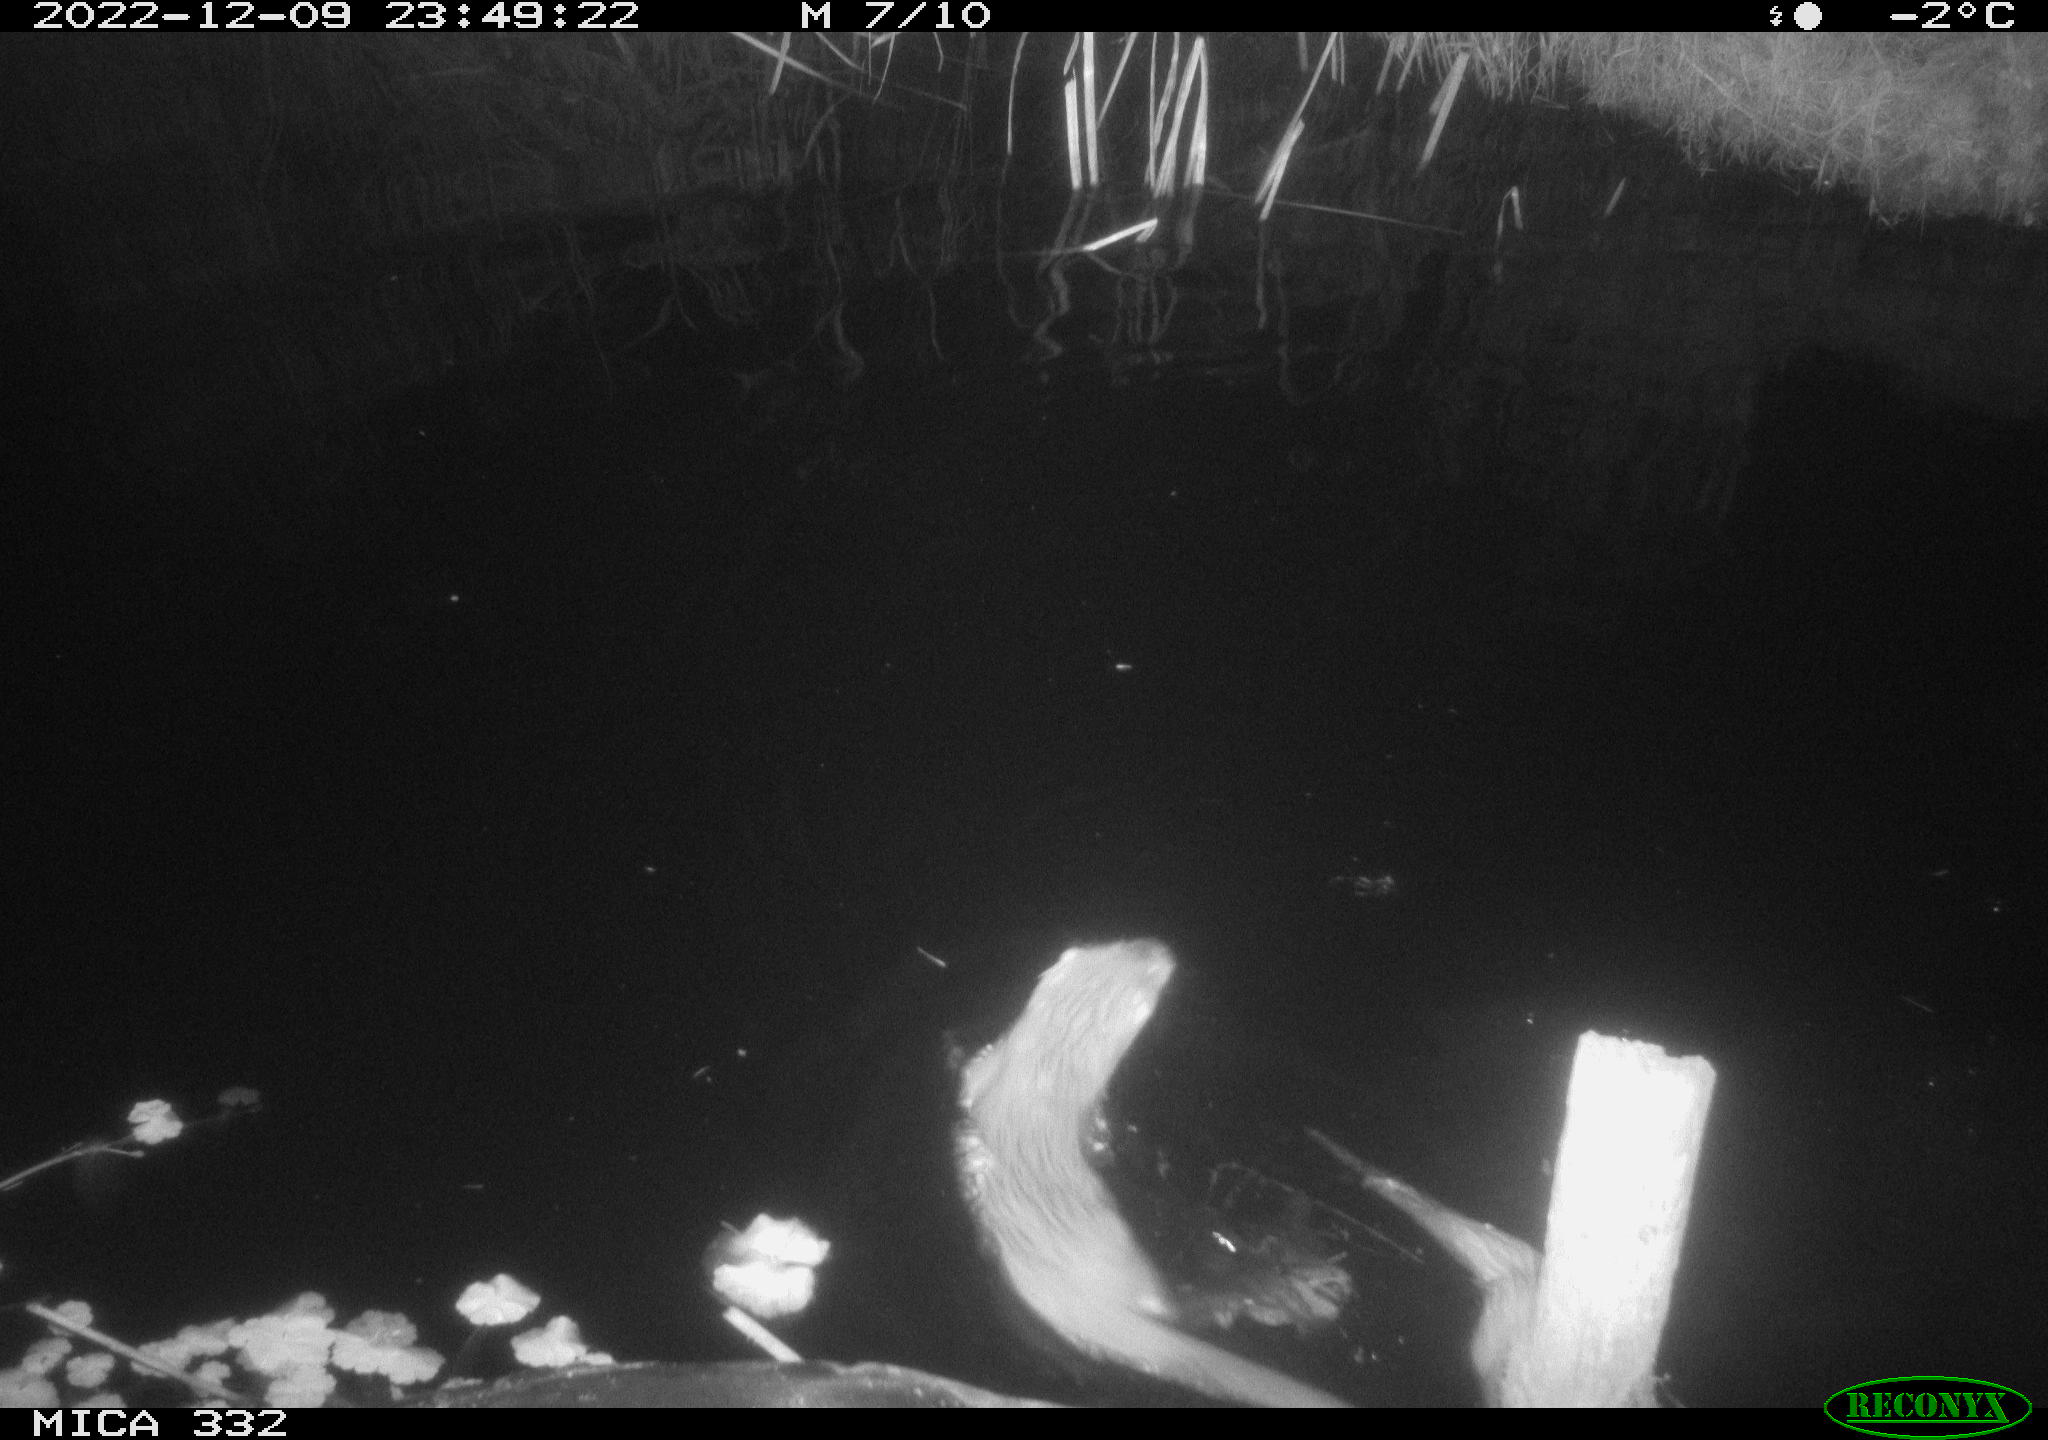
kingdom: Animalia
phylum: Chordata
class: Mammalia
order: Rodentia
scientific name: Rodentia
